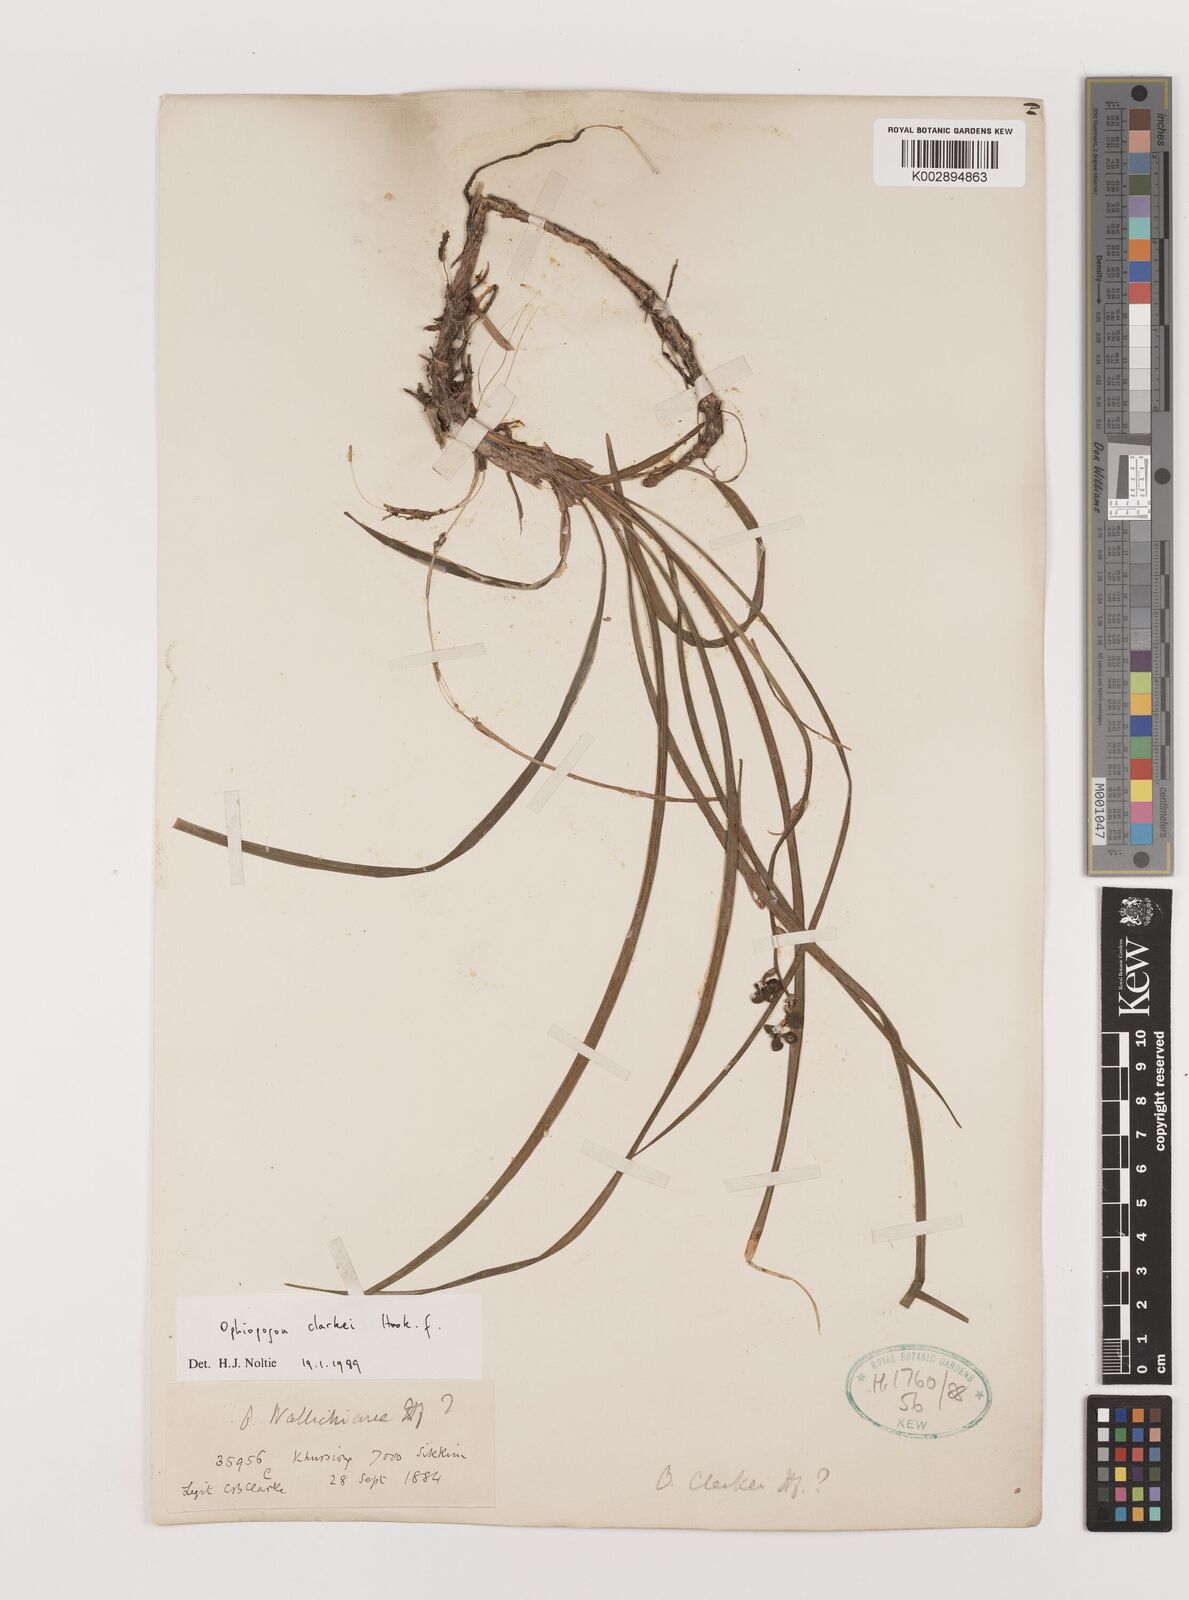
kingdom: Plantae
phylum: Tracheophyta
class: Liliopsida
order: Asparagales
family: Asparagaceae
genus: Ophiopogon
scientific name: Ophiopogon clarkei
